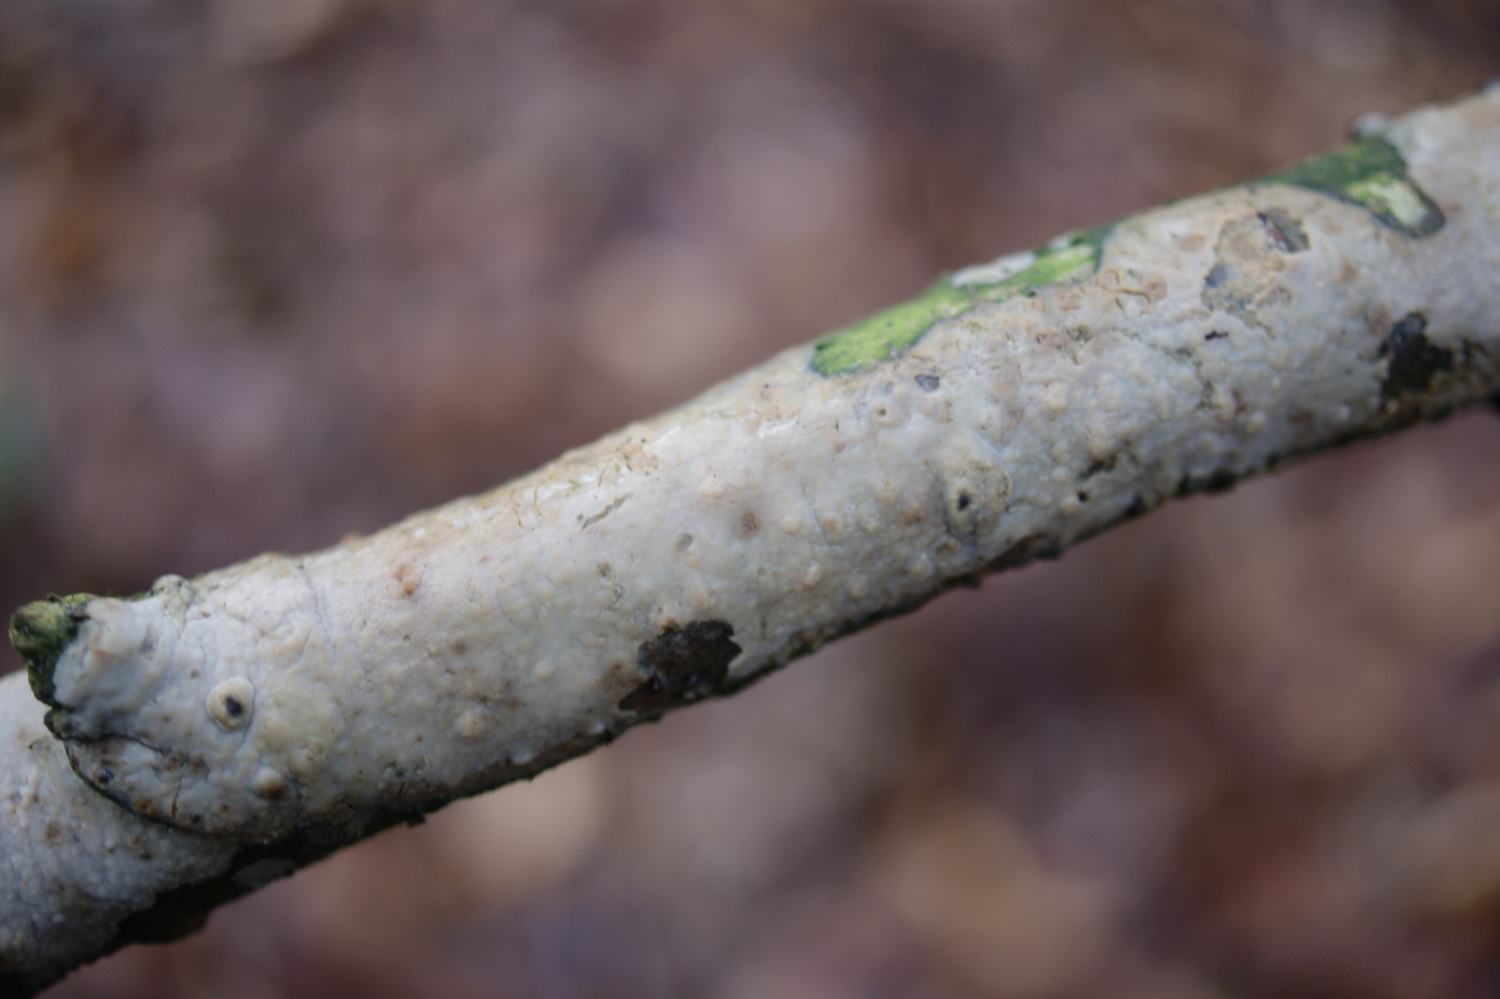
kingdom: Fungi
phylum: Basidiomycota
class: Agaricomycetes
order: Agaricales
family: Radulomycetaceae
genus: Radulomyces
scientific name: Radulomyces confluens
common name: glat naftalinskind
